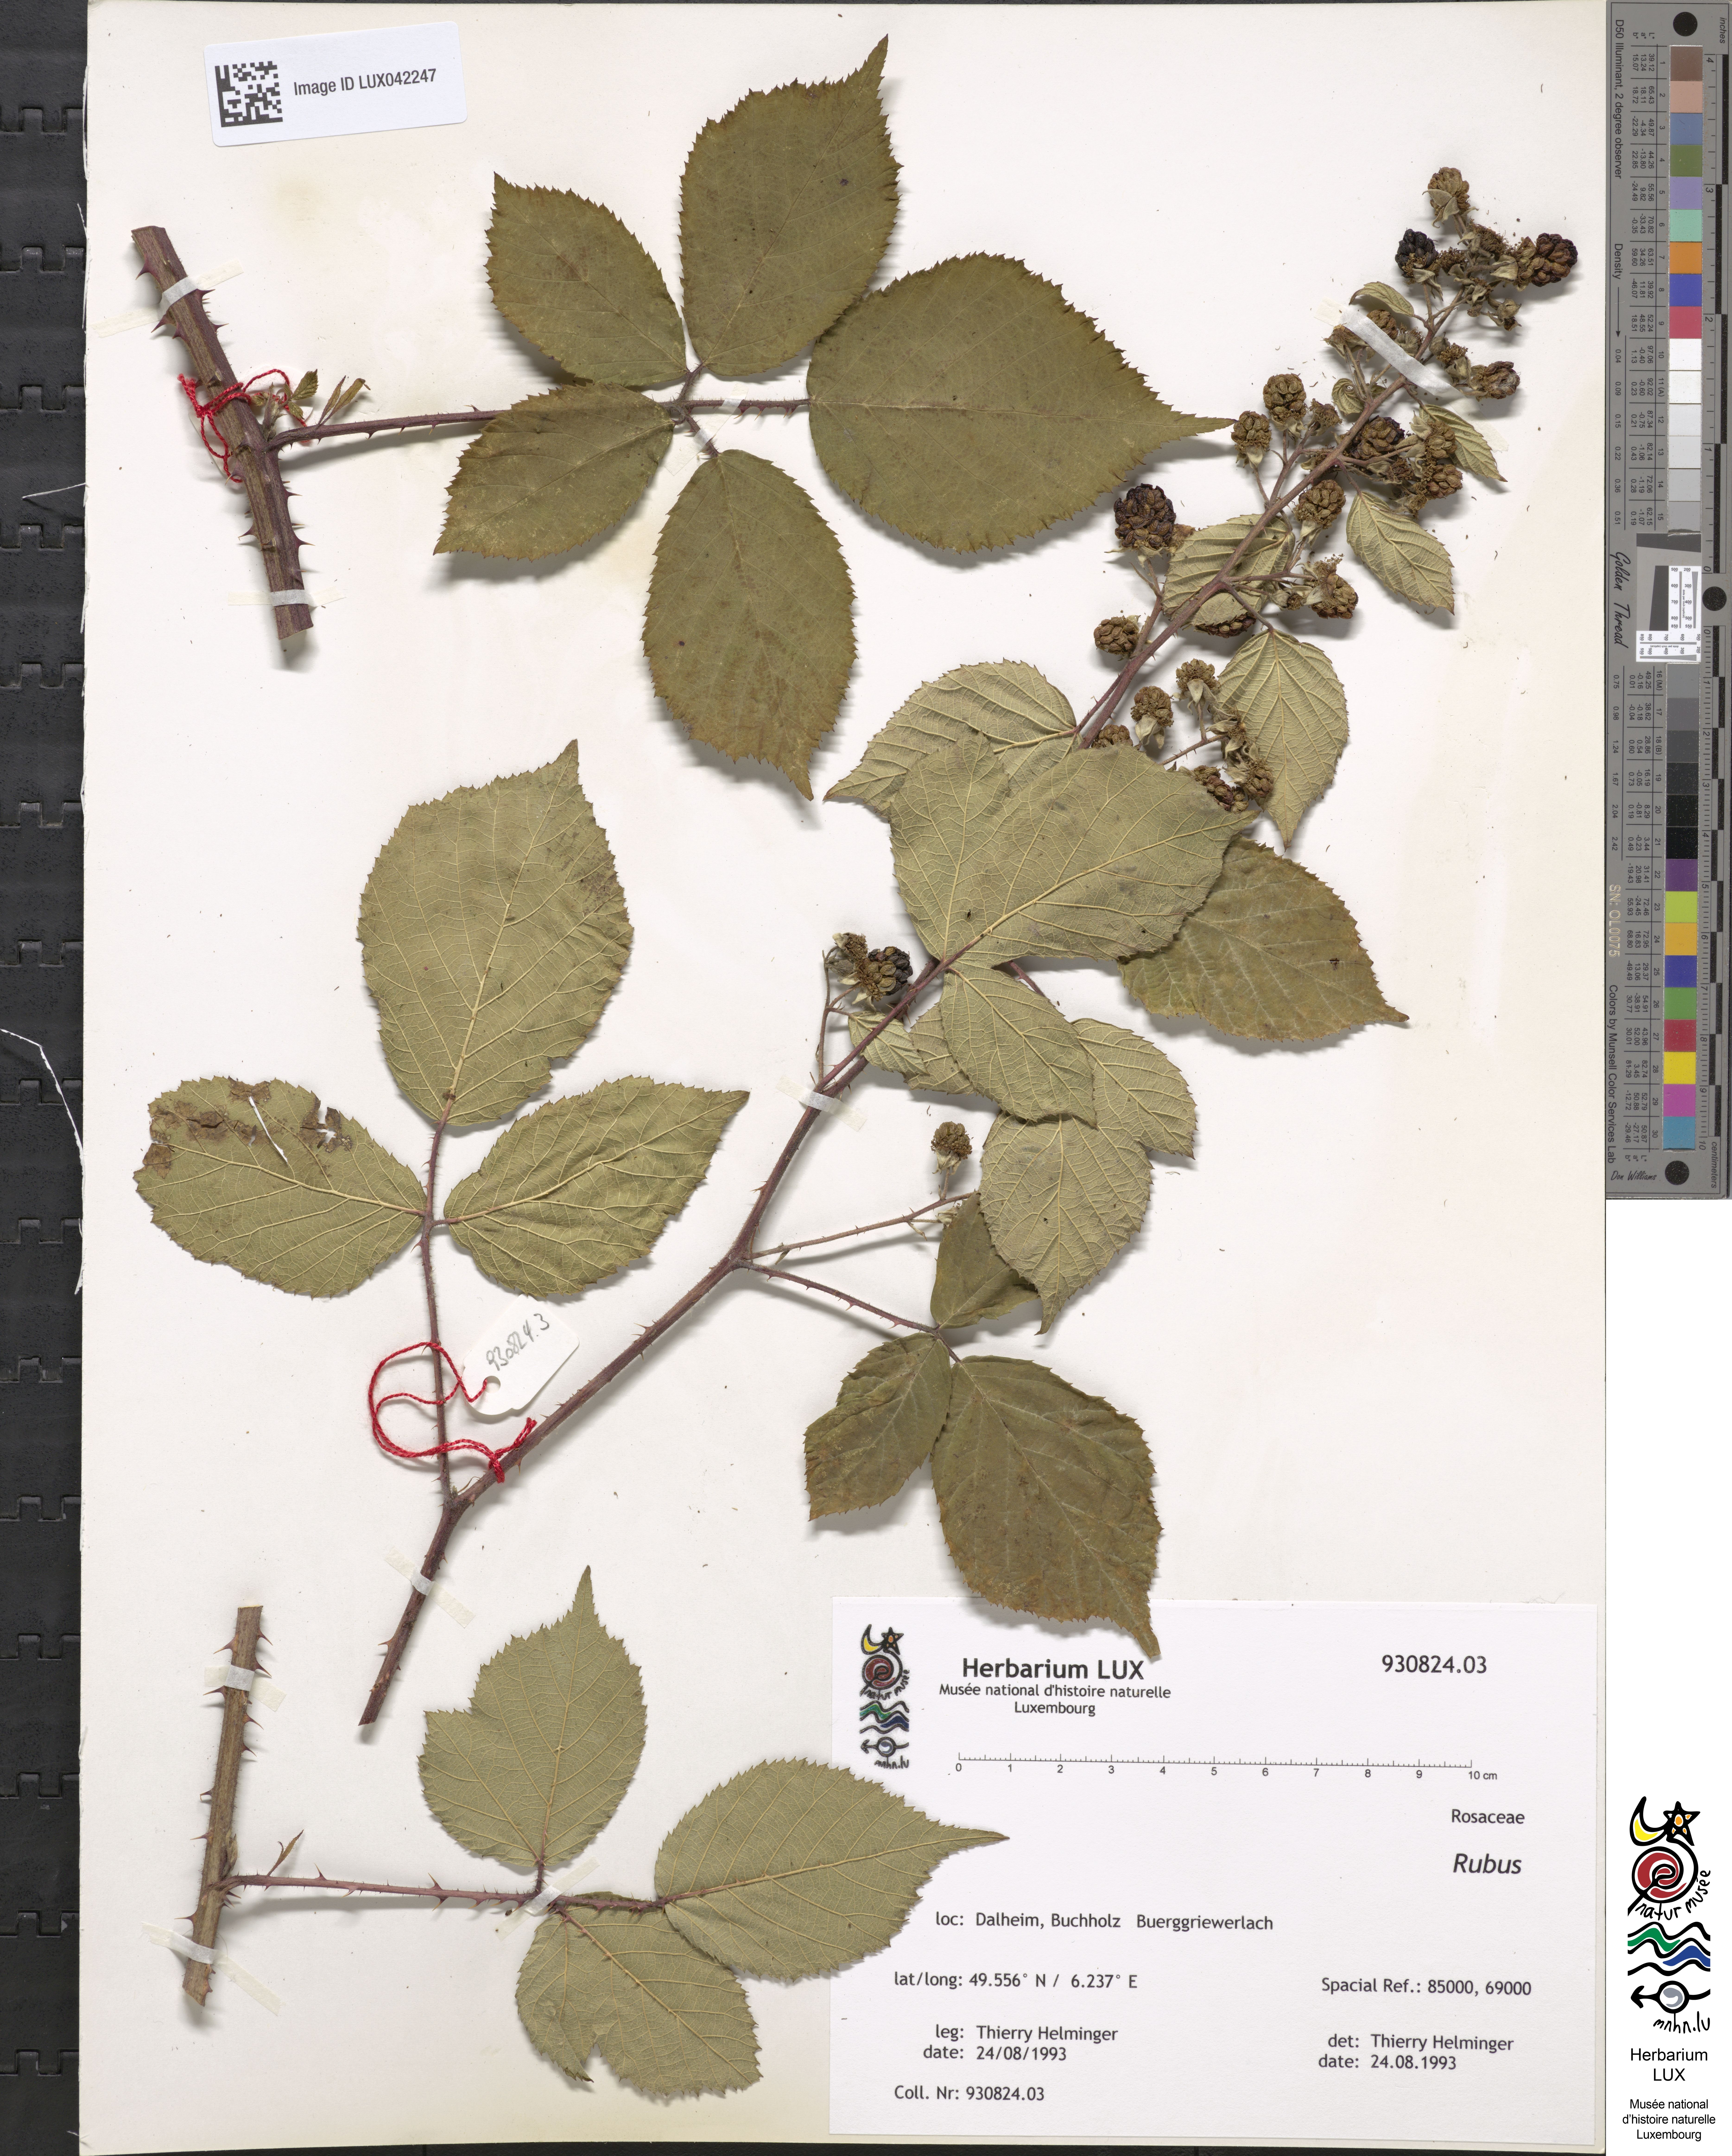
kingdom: Plantae
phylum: Tracheophyta
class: Magnoliopsida
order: Rosales
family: Rosaceae
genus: Rubus
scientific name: Rubus
